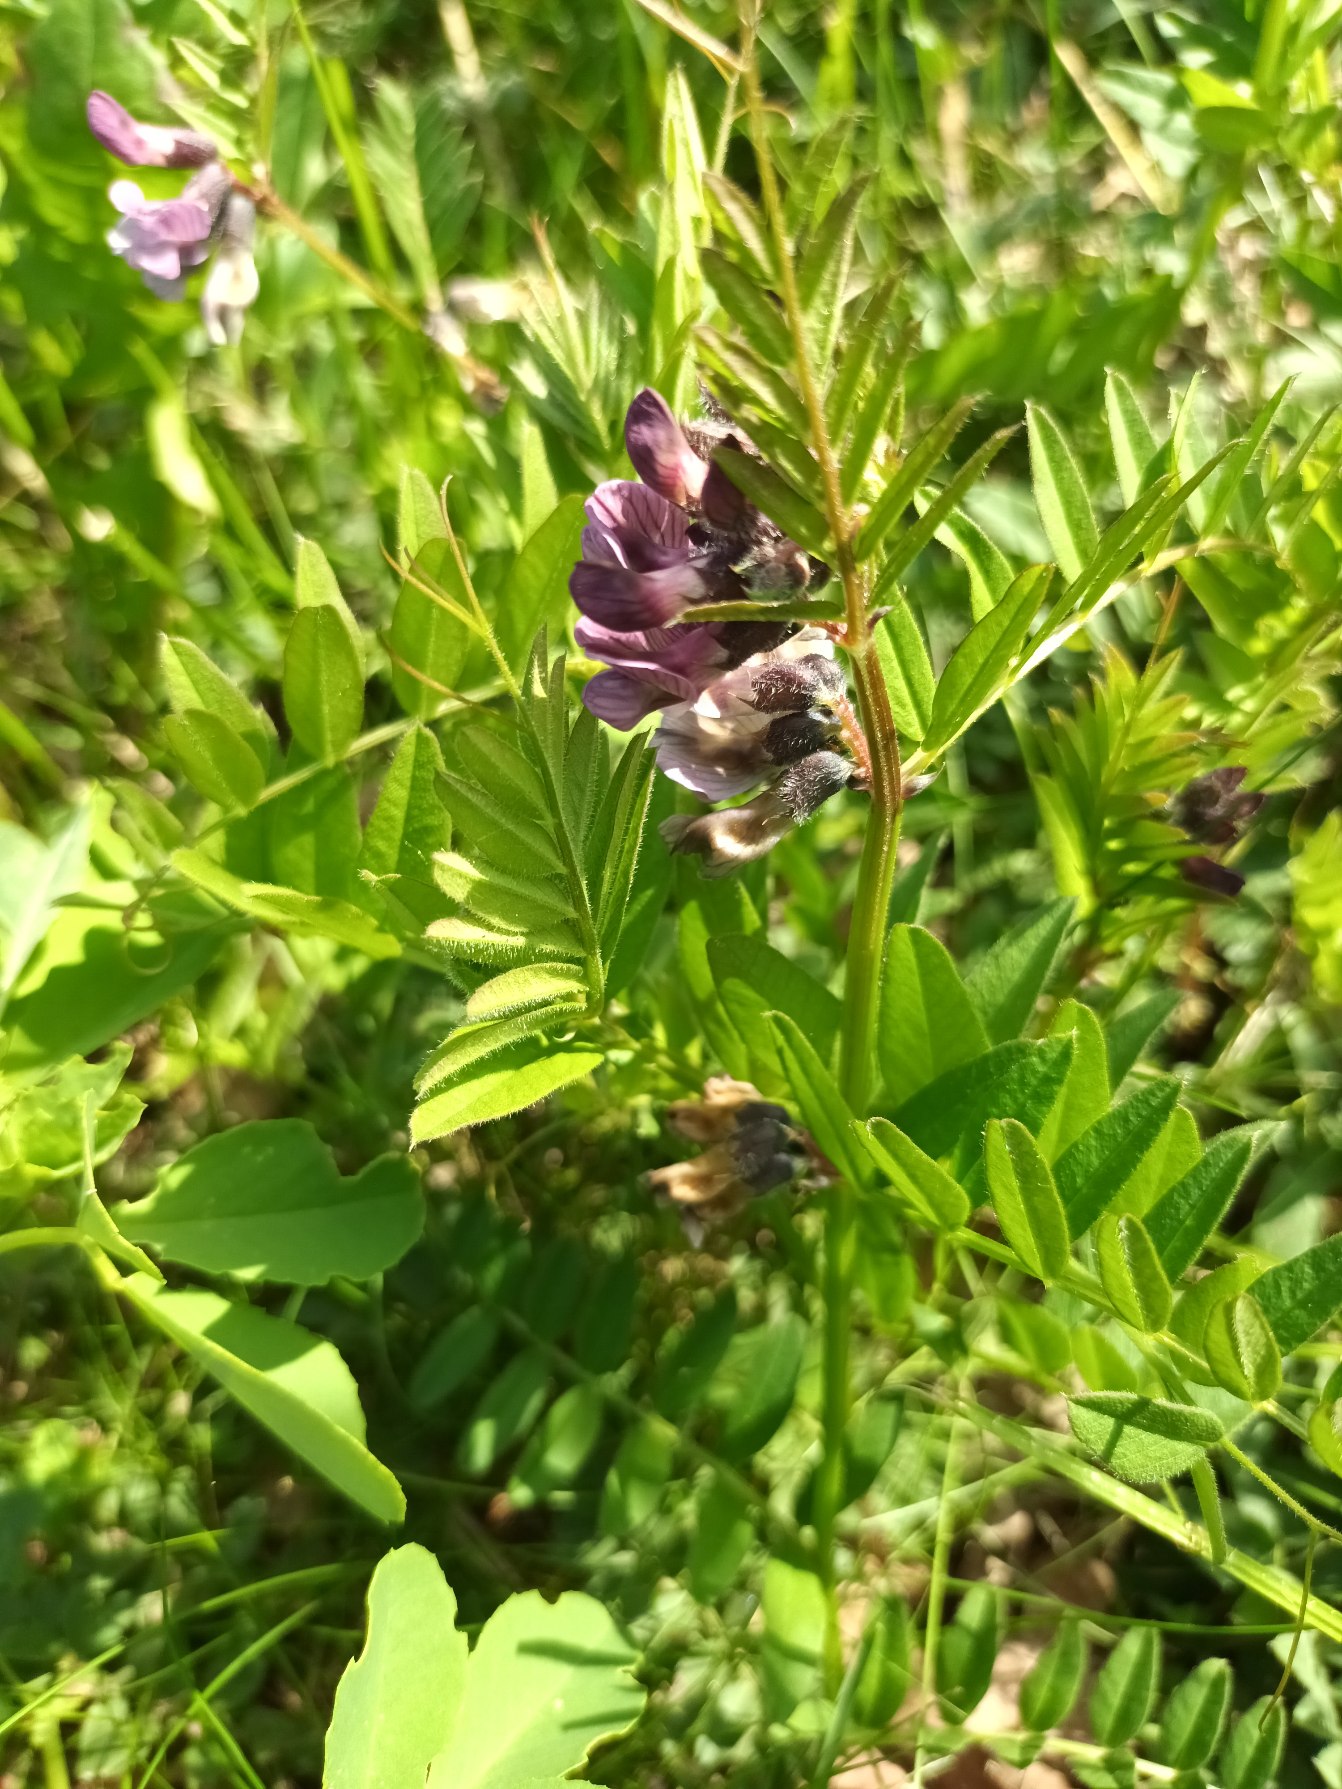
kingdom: Plantae
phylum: Tracheophyta
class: Magnoliopsida
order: Fabales
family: Fabaceae
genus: Vicia
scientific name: Vicia sepium
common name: Gærde-vikke
